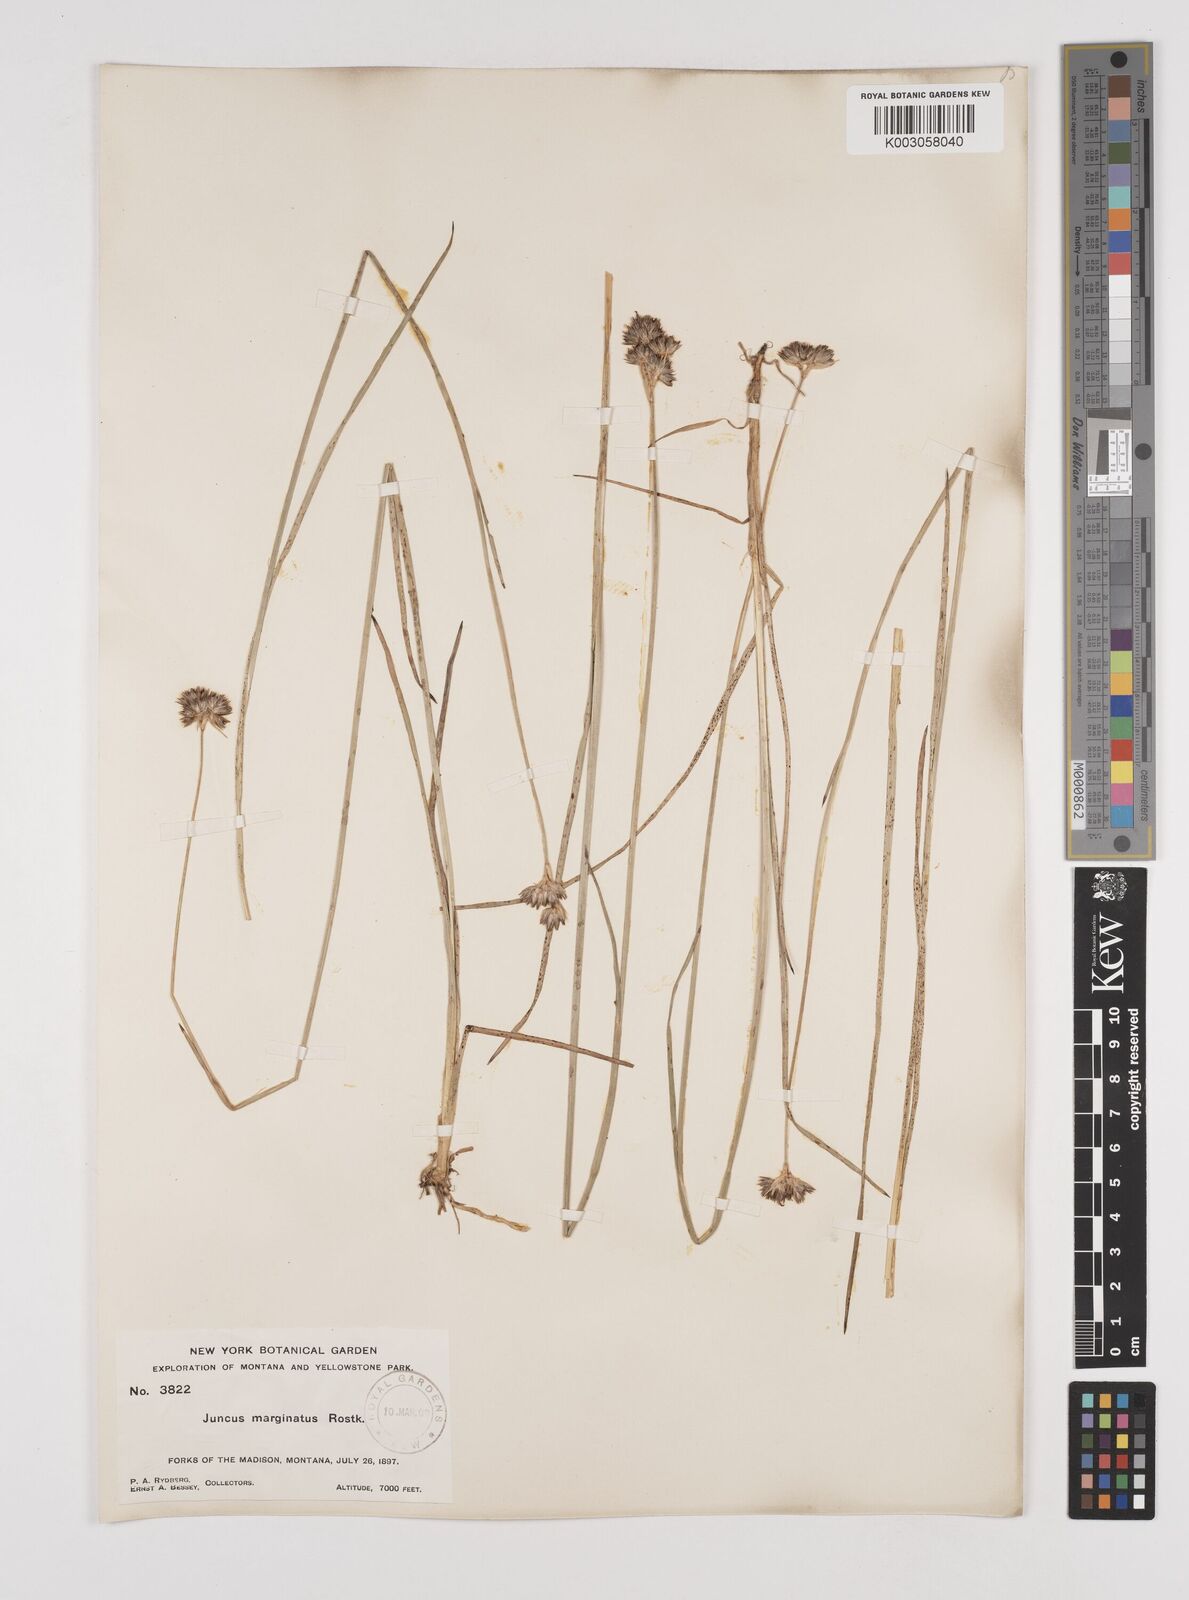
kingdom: Plantae
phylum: Tracheophyta
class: Liliopsida
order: Poales
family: Juncaceae
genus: Juncus
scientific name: Juncus longistylis
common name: Long-style rush
